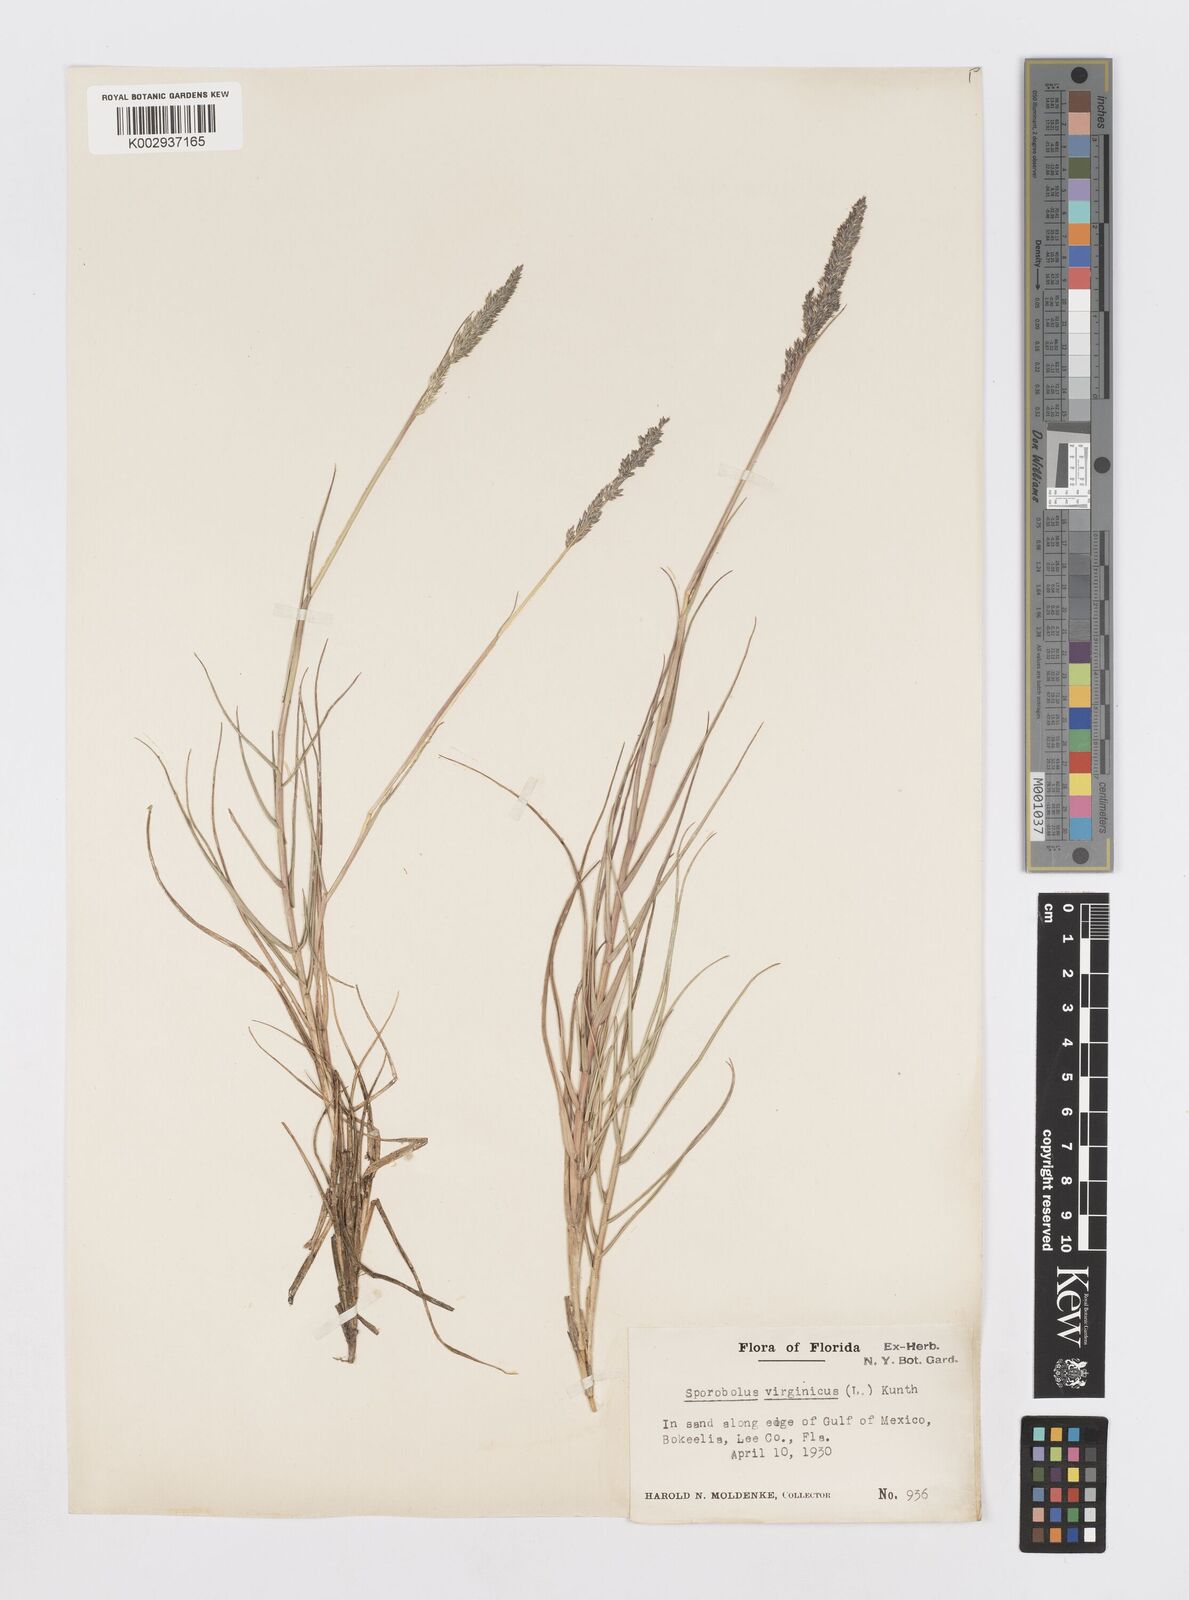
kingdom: Plantae
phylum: Tracheophyta
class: Liliopsida
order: Poales
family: Poaceae
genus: Sporobolus
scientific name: Sporobolus virginicus
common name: Beach dropseed
